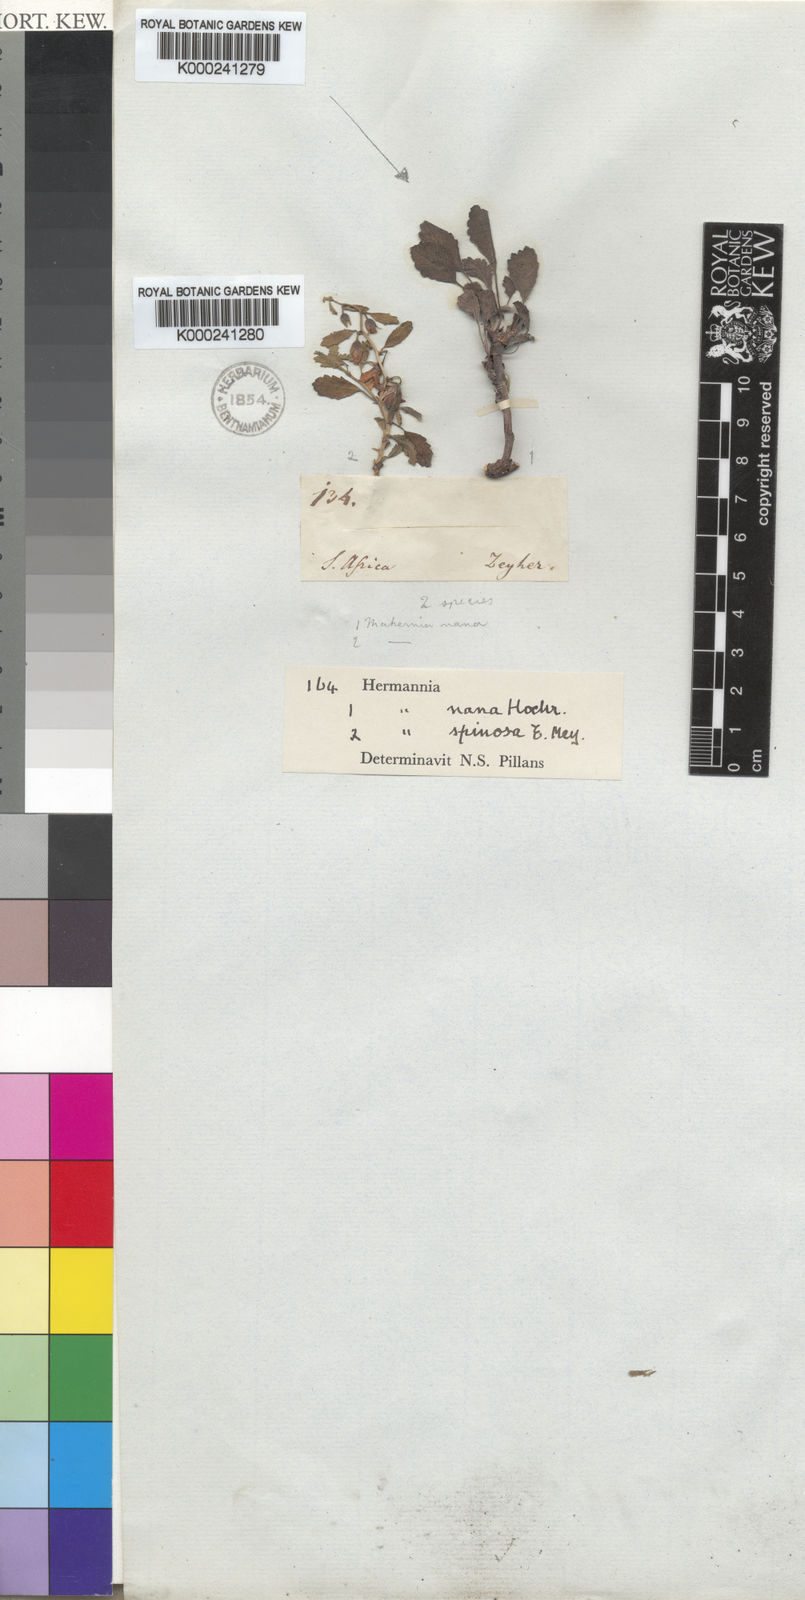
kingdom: Plantae
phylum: Tracheophyta
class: Magnoliopsida
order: Malvales
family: Malvaceae
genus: Hermannia
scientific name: Hermannia cernua
